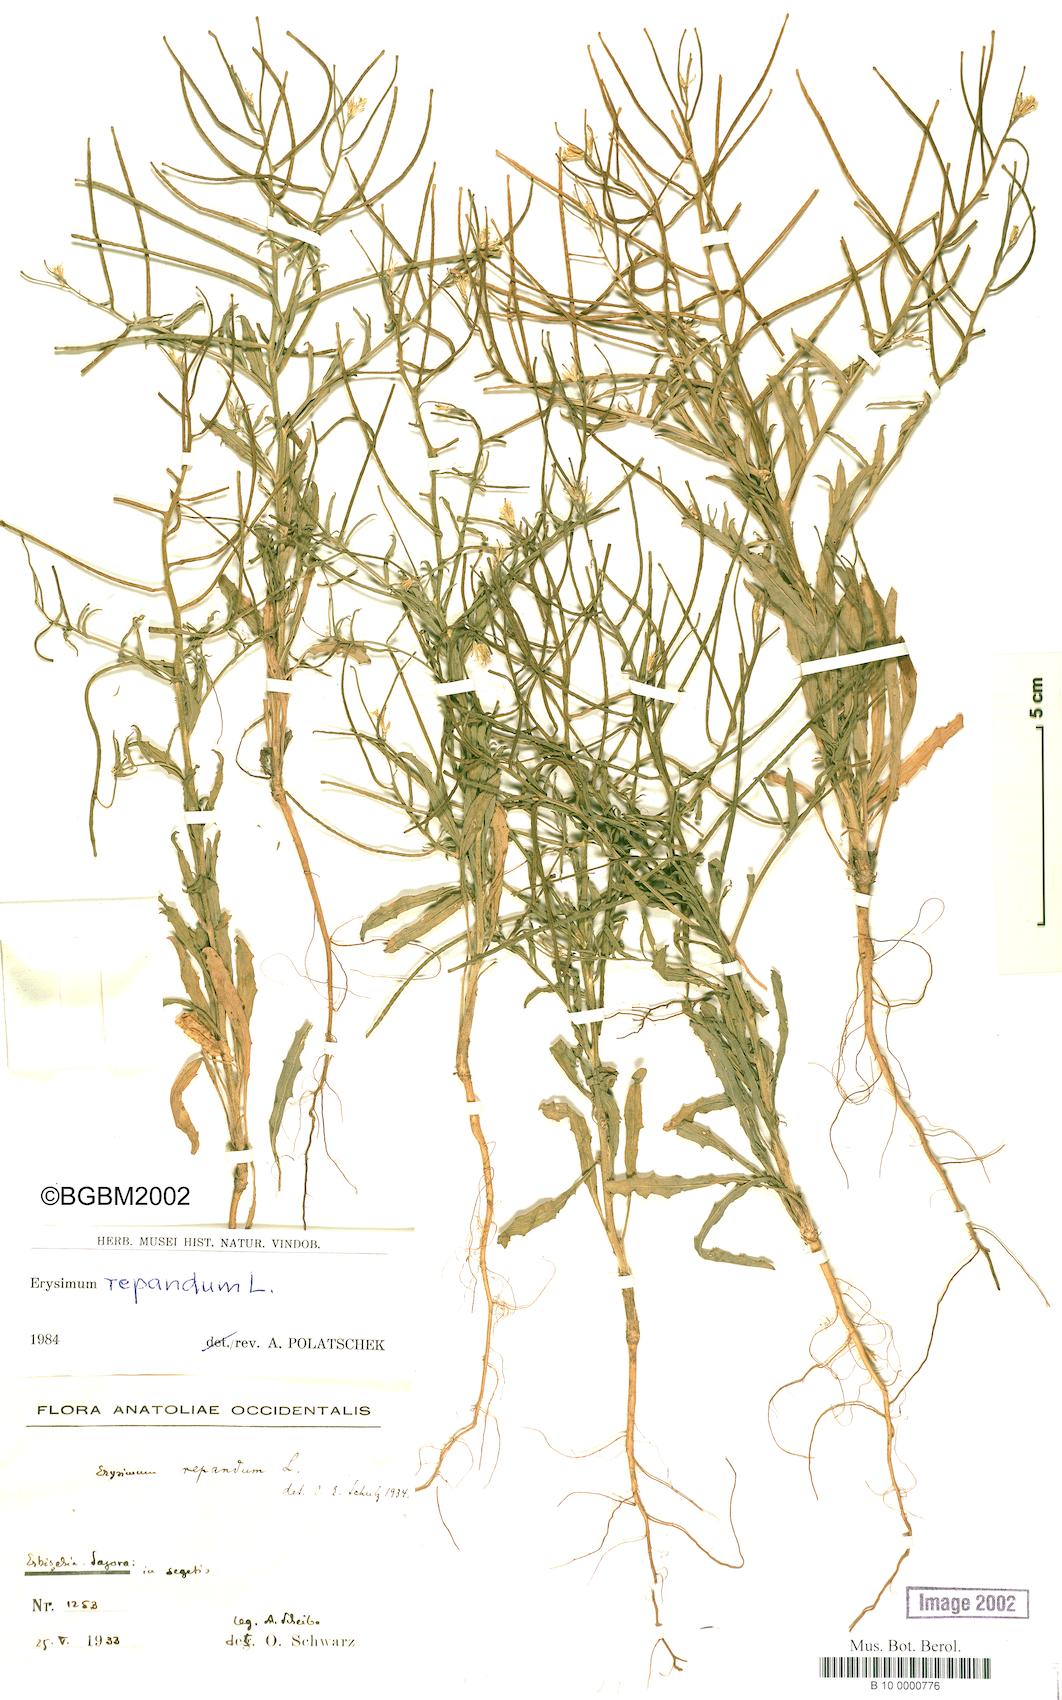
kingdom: Plantae
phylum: Tracheophyta
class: Magnoliopsida
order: Brassicales
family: Brassicaceae
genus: Erysimum
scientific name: Erysimum repandum
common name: Spreading wallflower
